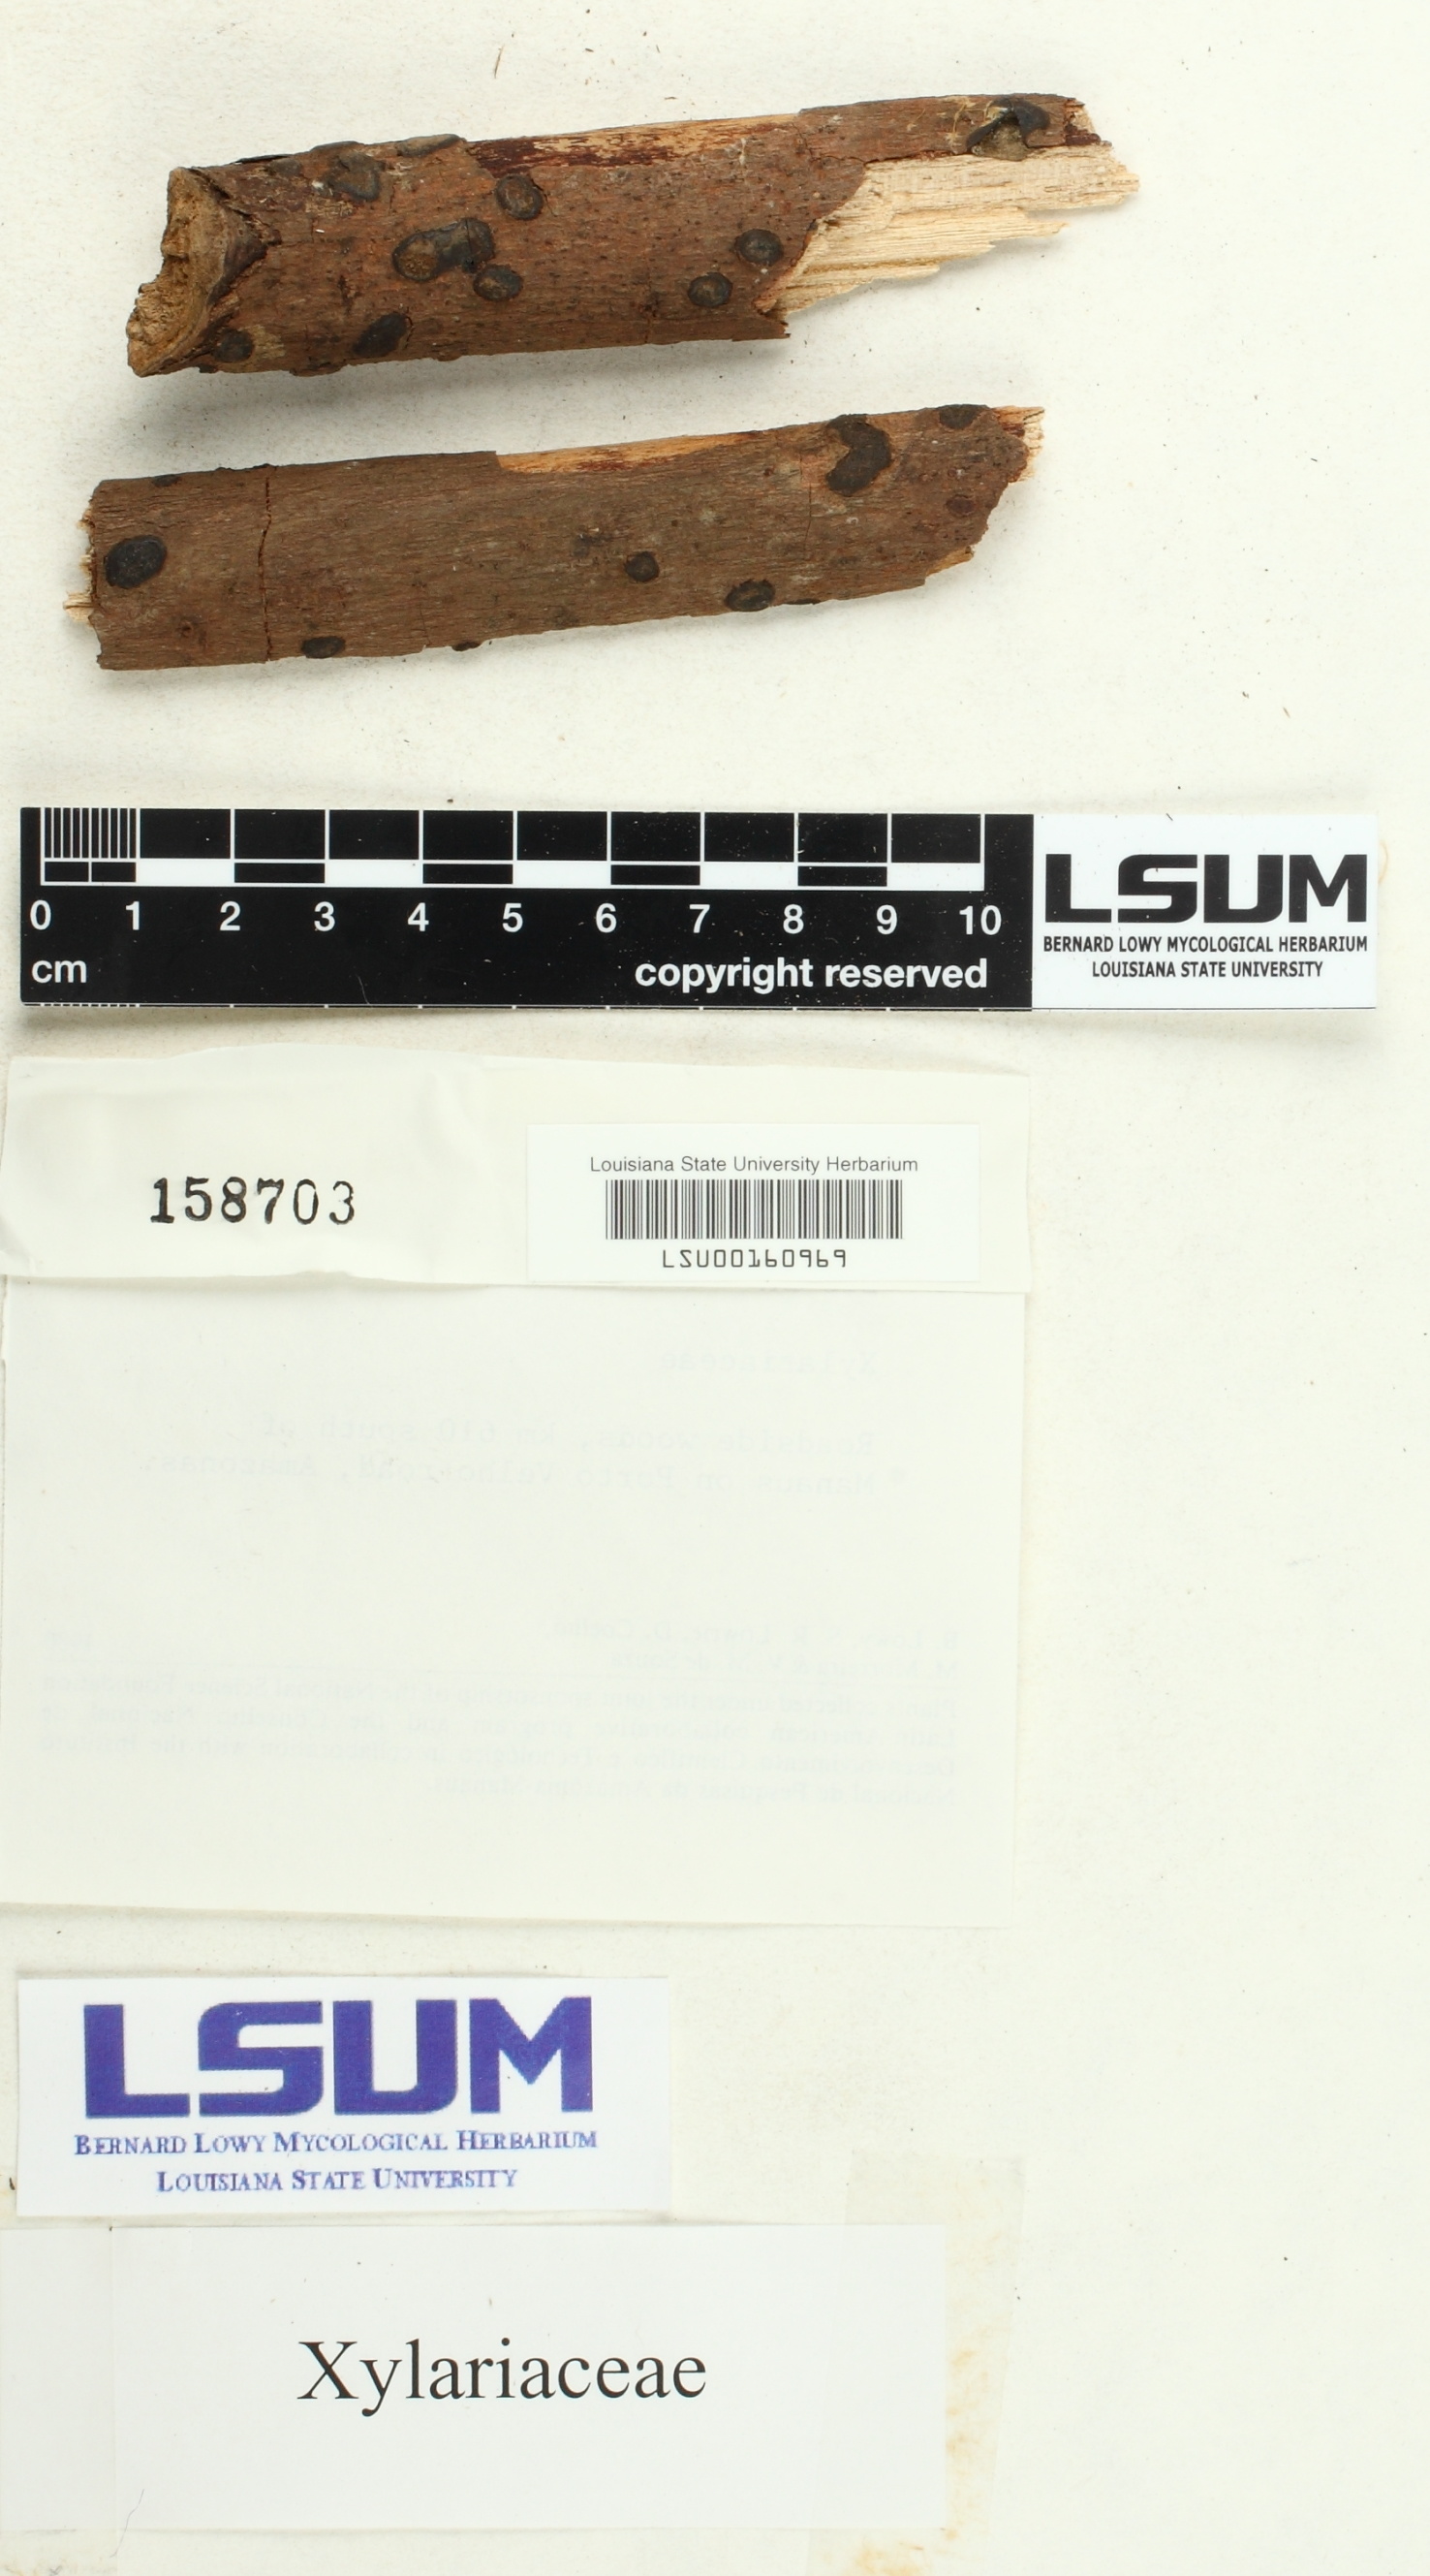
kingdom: Fungi
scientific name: Fungi
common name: Fungi
